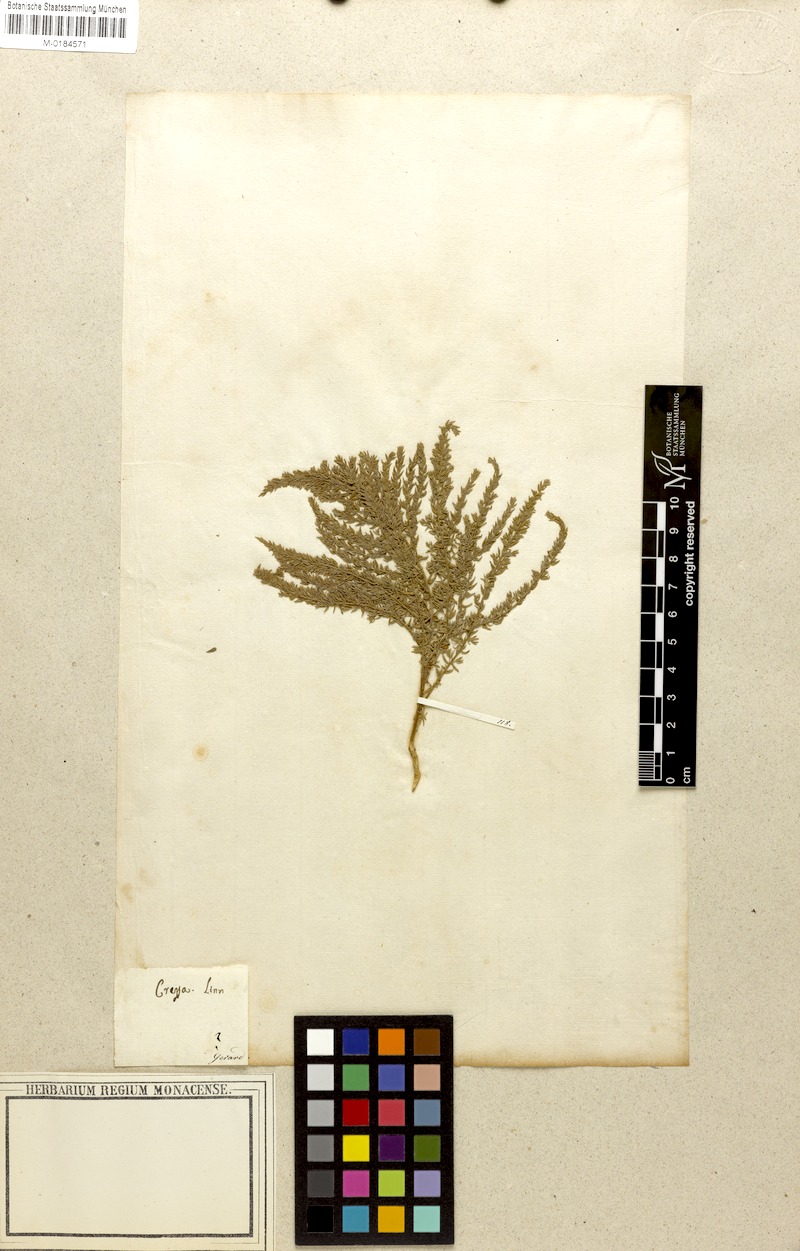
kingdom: Plantae
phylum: Tracheophyta
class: Magnoliopsida
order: Solanales
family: Convolvulaceae
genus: Cressa
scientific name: Cressa cretica
